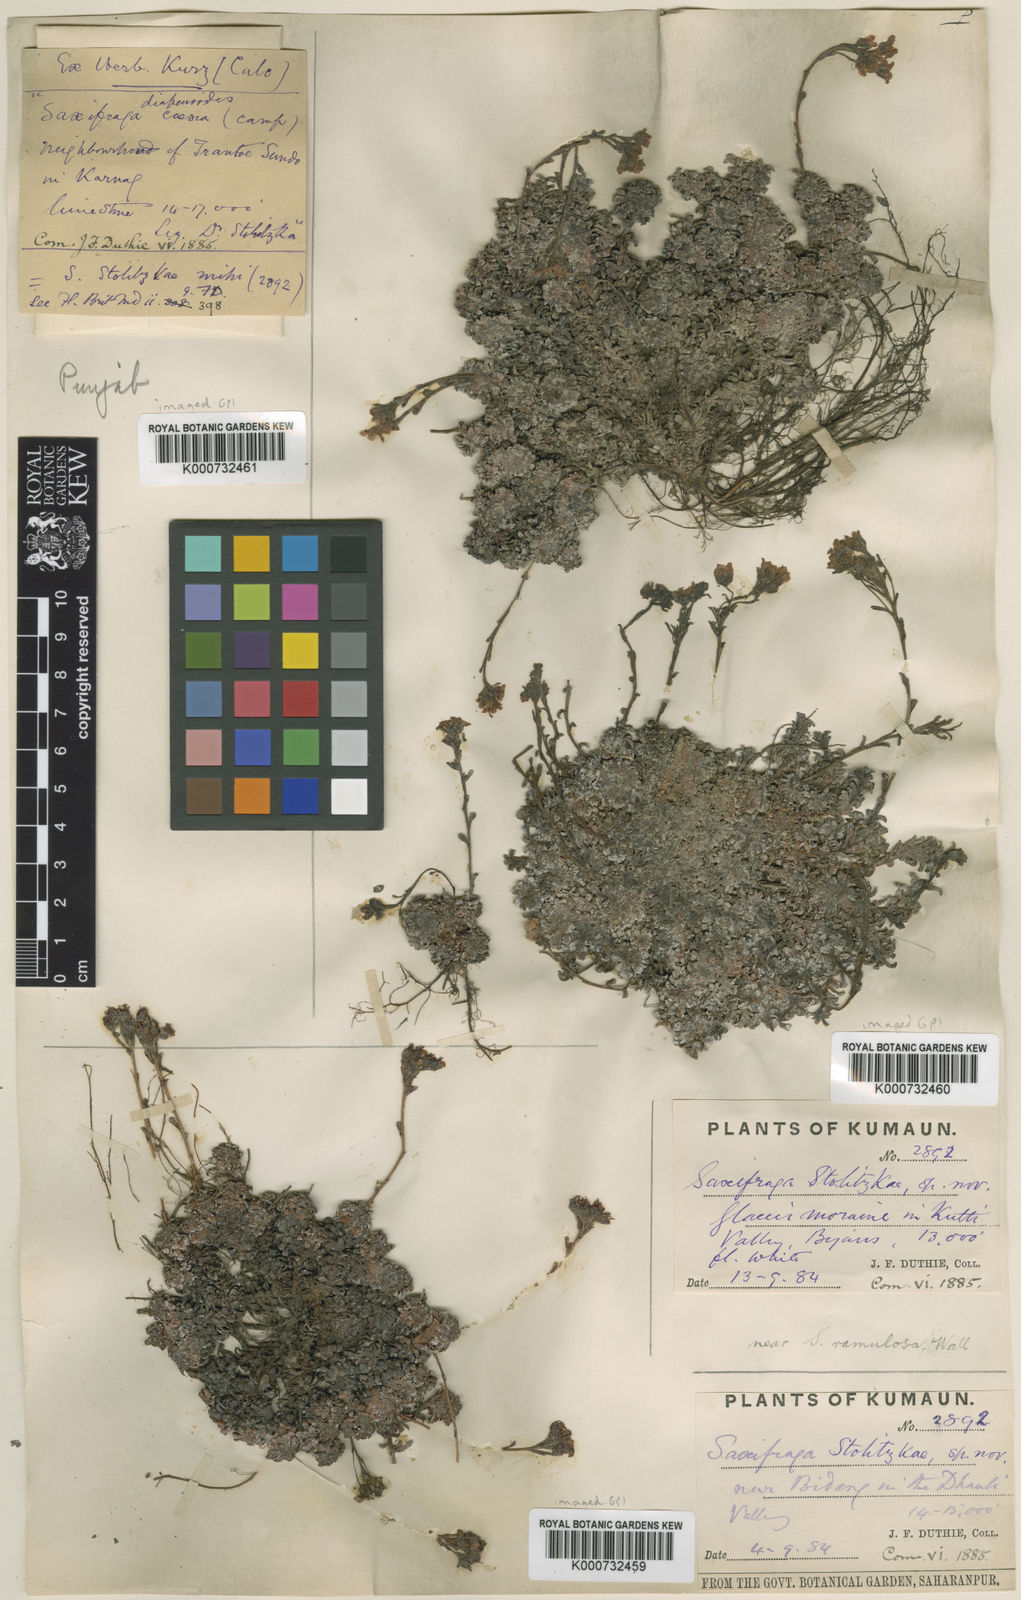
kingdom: Plantae
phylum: Tracheophyta
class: Magnoliopsida
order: Saxifragales
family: Saxifragaceae
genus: Saxifraga
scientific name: Saxifraga stolitzkae
